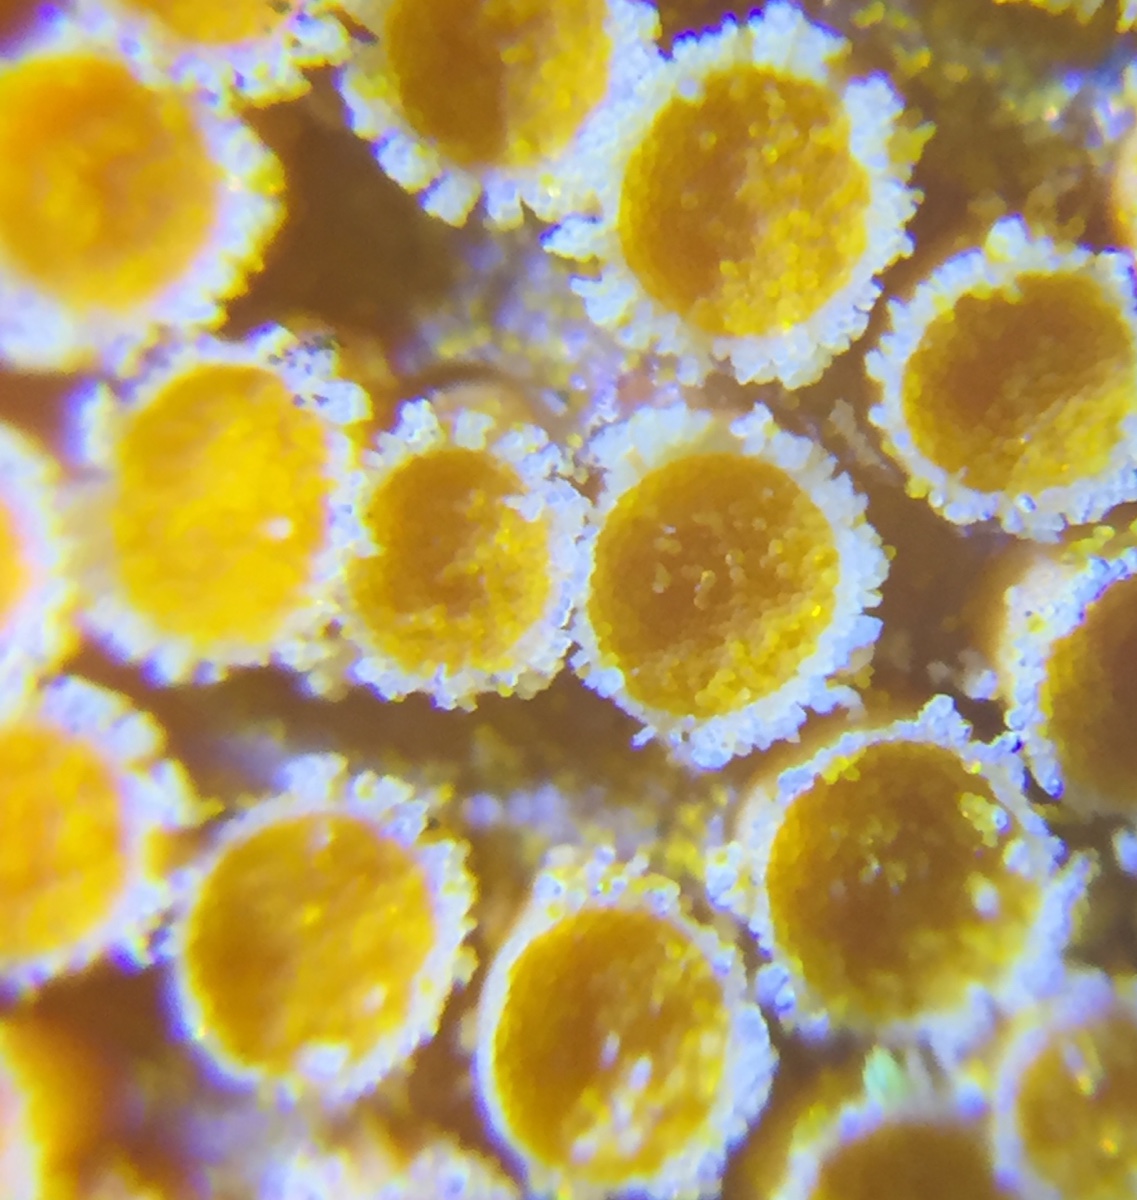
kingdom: Fungi
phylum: Basidiomycota
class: Pucciniomycetes
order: Pucciniales
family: Pucciniaceae
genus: Puccinia
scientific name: Puccinia coronata
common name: Crown rust
